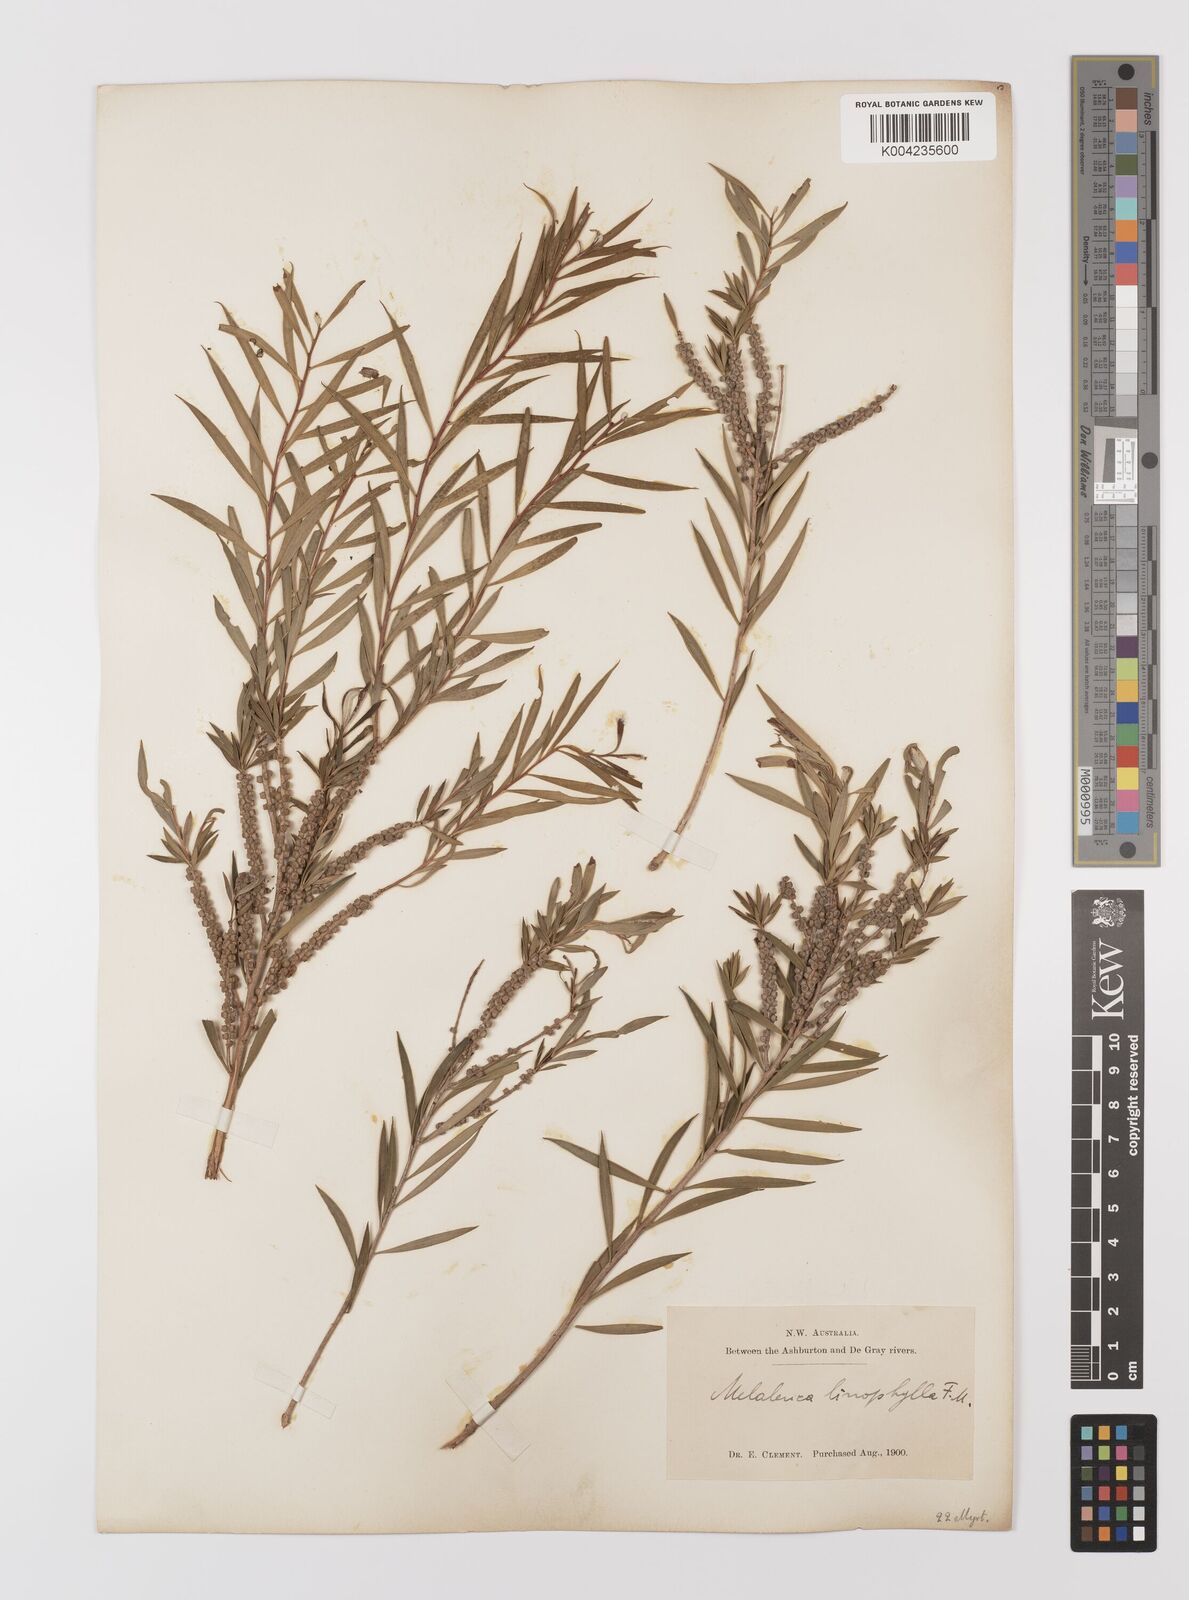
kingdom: Plantae
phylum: Tracheophyta
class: Magnoliopsida
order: Myrtales
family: Myrtaceae
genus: Melaleuca
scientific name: Melaleuca linophylla
